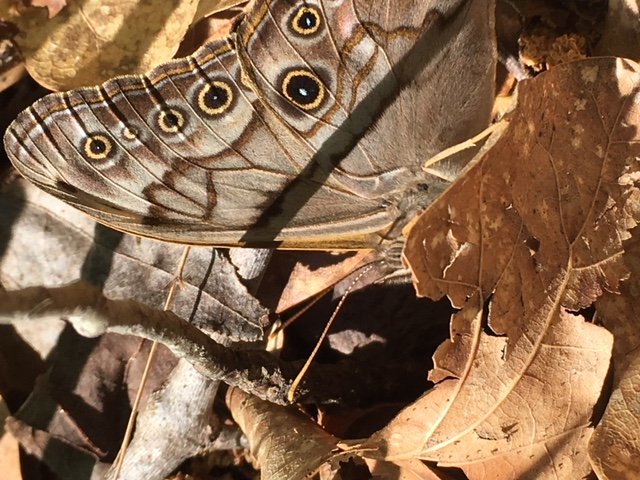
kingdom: Animalia
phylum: Arthropoda
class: Insecta
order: Lepidoptera
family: Nymphalidae
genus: Lethe
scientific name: Lethe creola
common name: Creole Pearly-Eye
